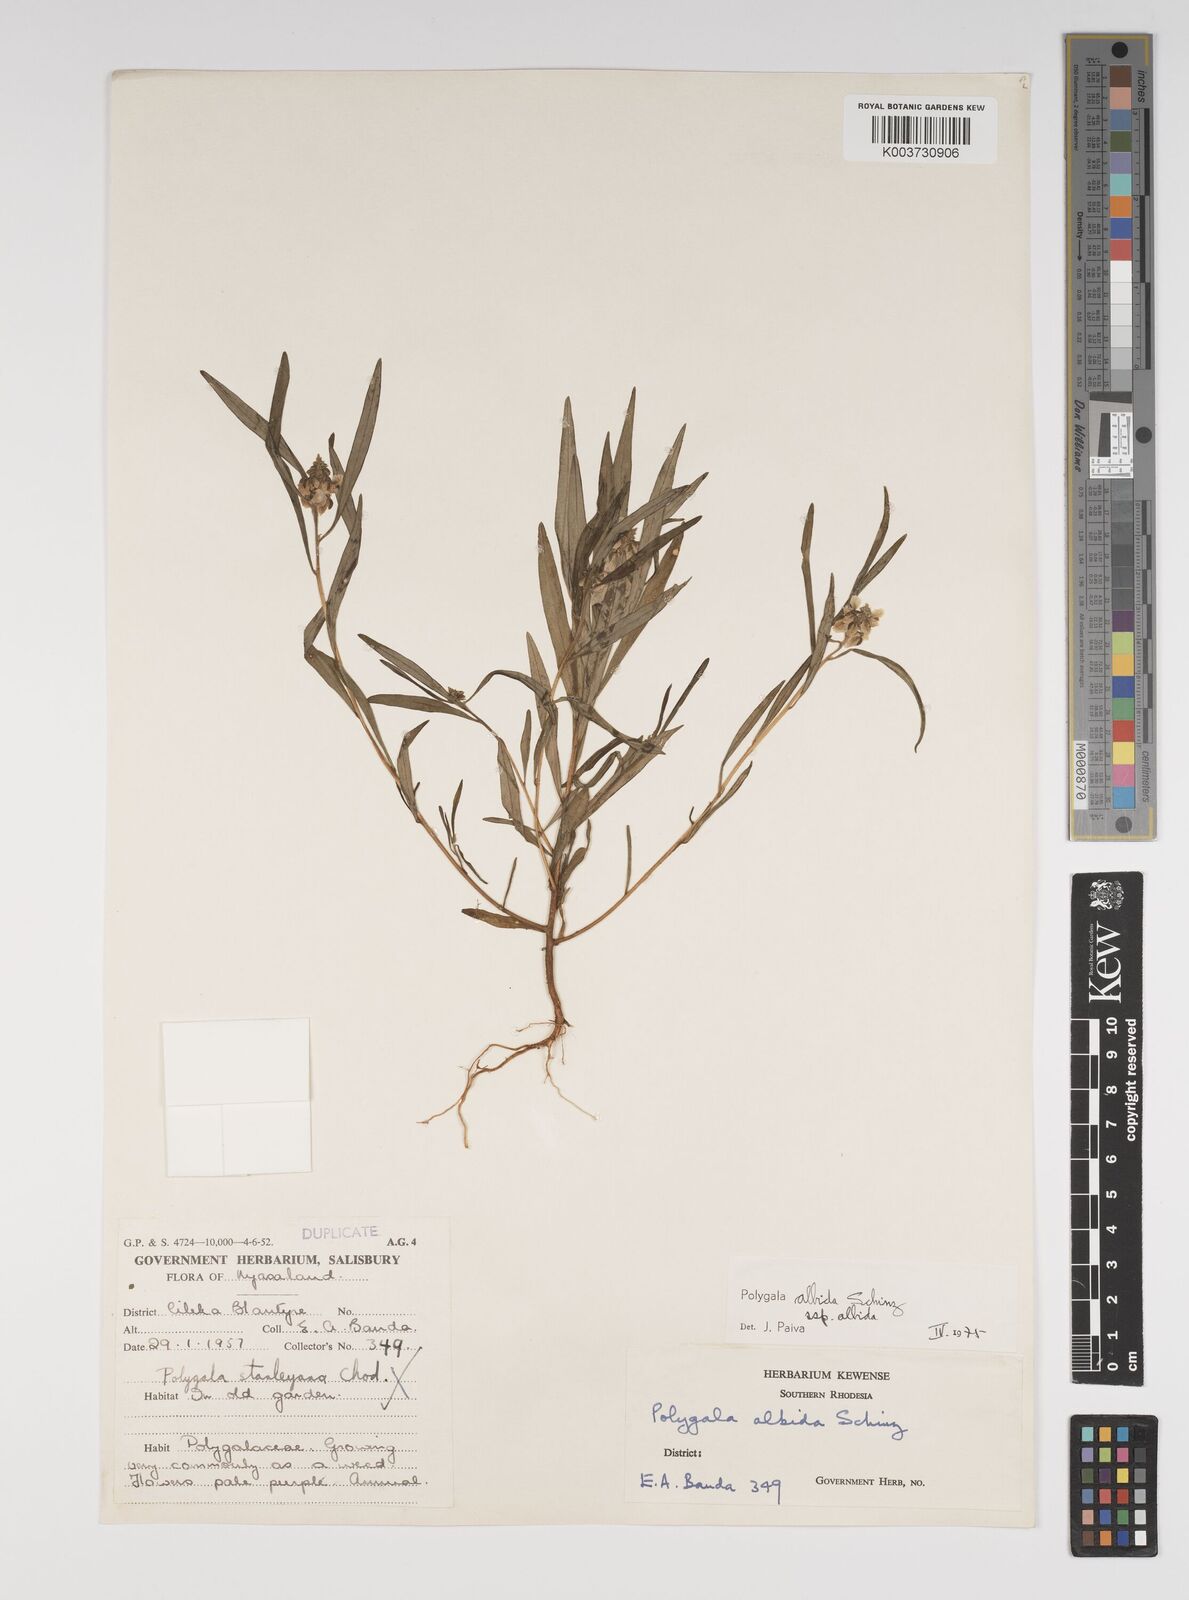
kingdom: Plantae
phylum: Tracheophyta
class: Magnoliopsida
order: Fabales
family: Polygalaceae
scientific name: Polygalaceae
